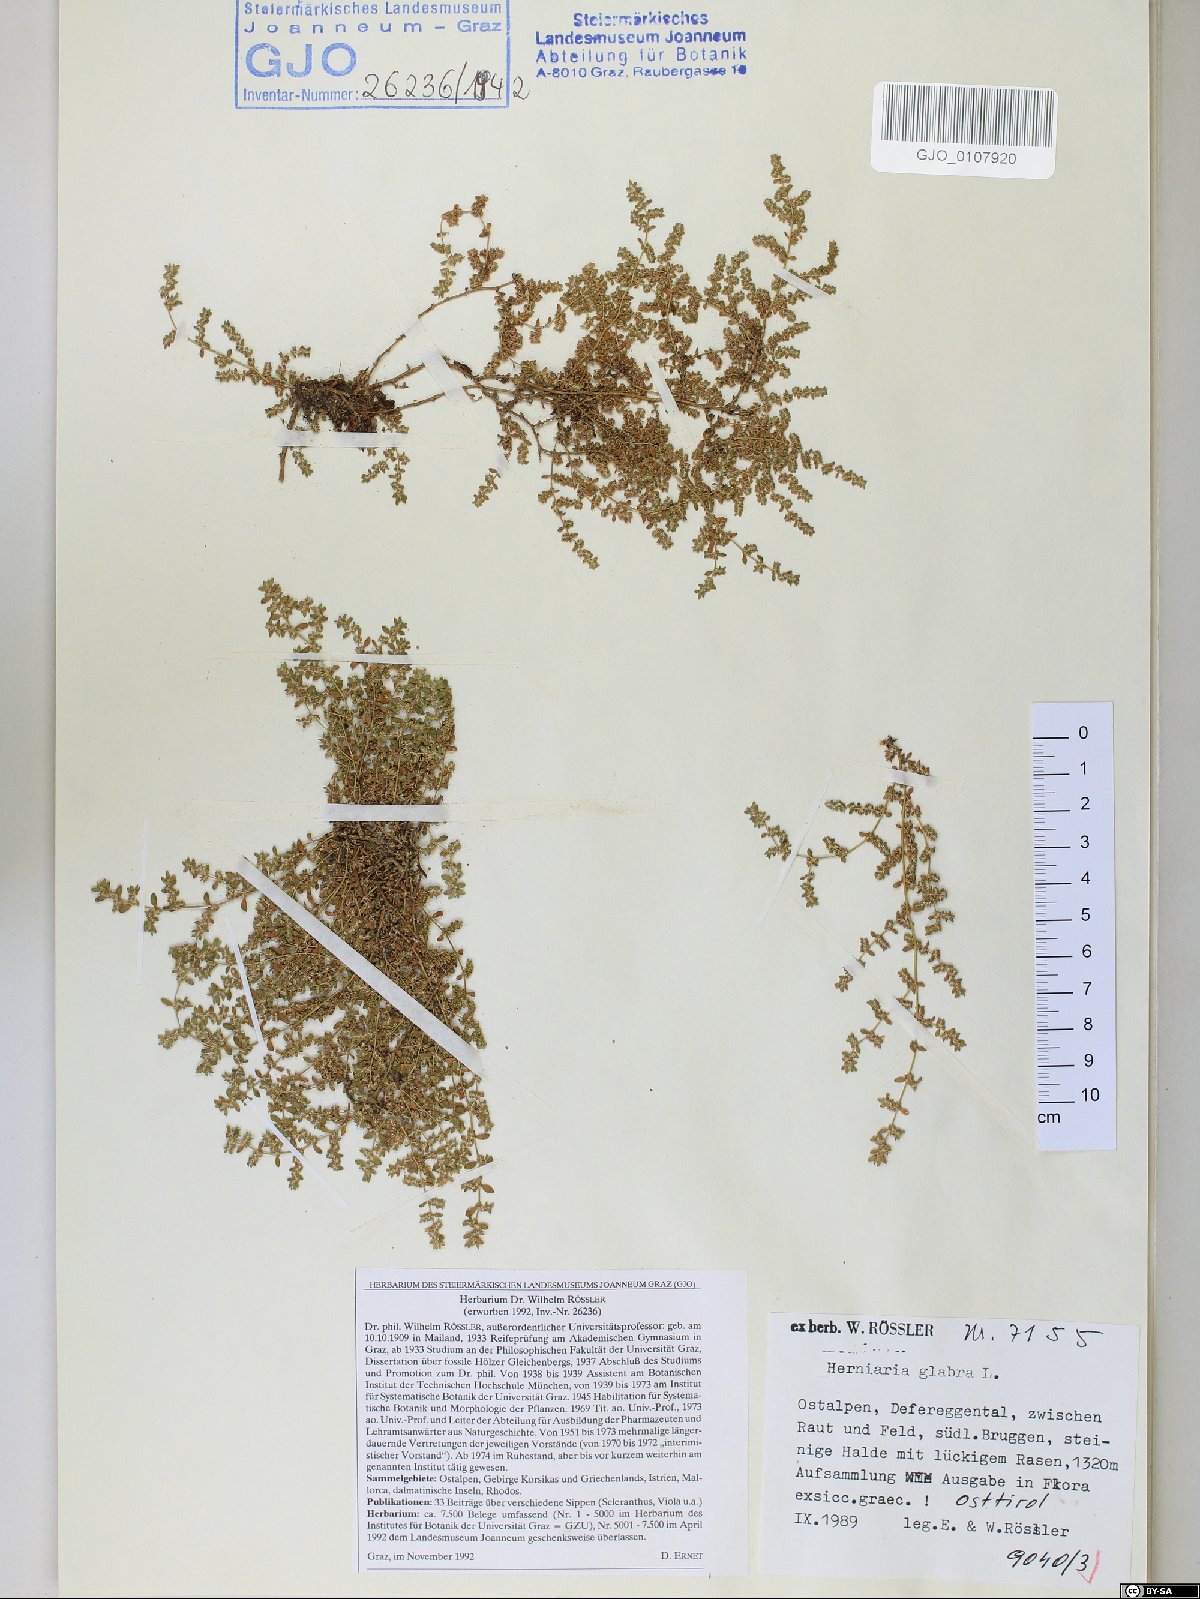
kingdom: Plantae
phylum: Tracheophyta
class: Magnoliopsida
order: Caryophyllales
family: Caryophyllaceae
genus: Herniaria
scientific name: Herniaria glabra
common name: Smooth rupturewort
